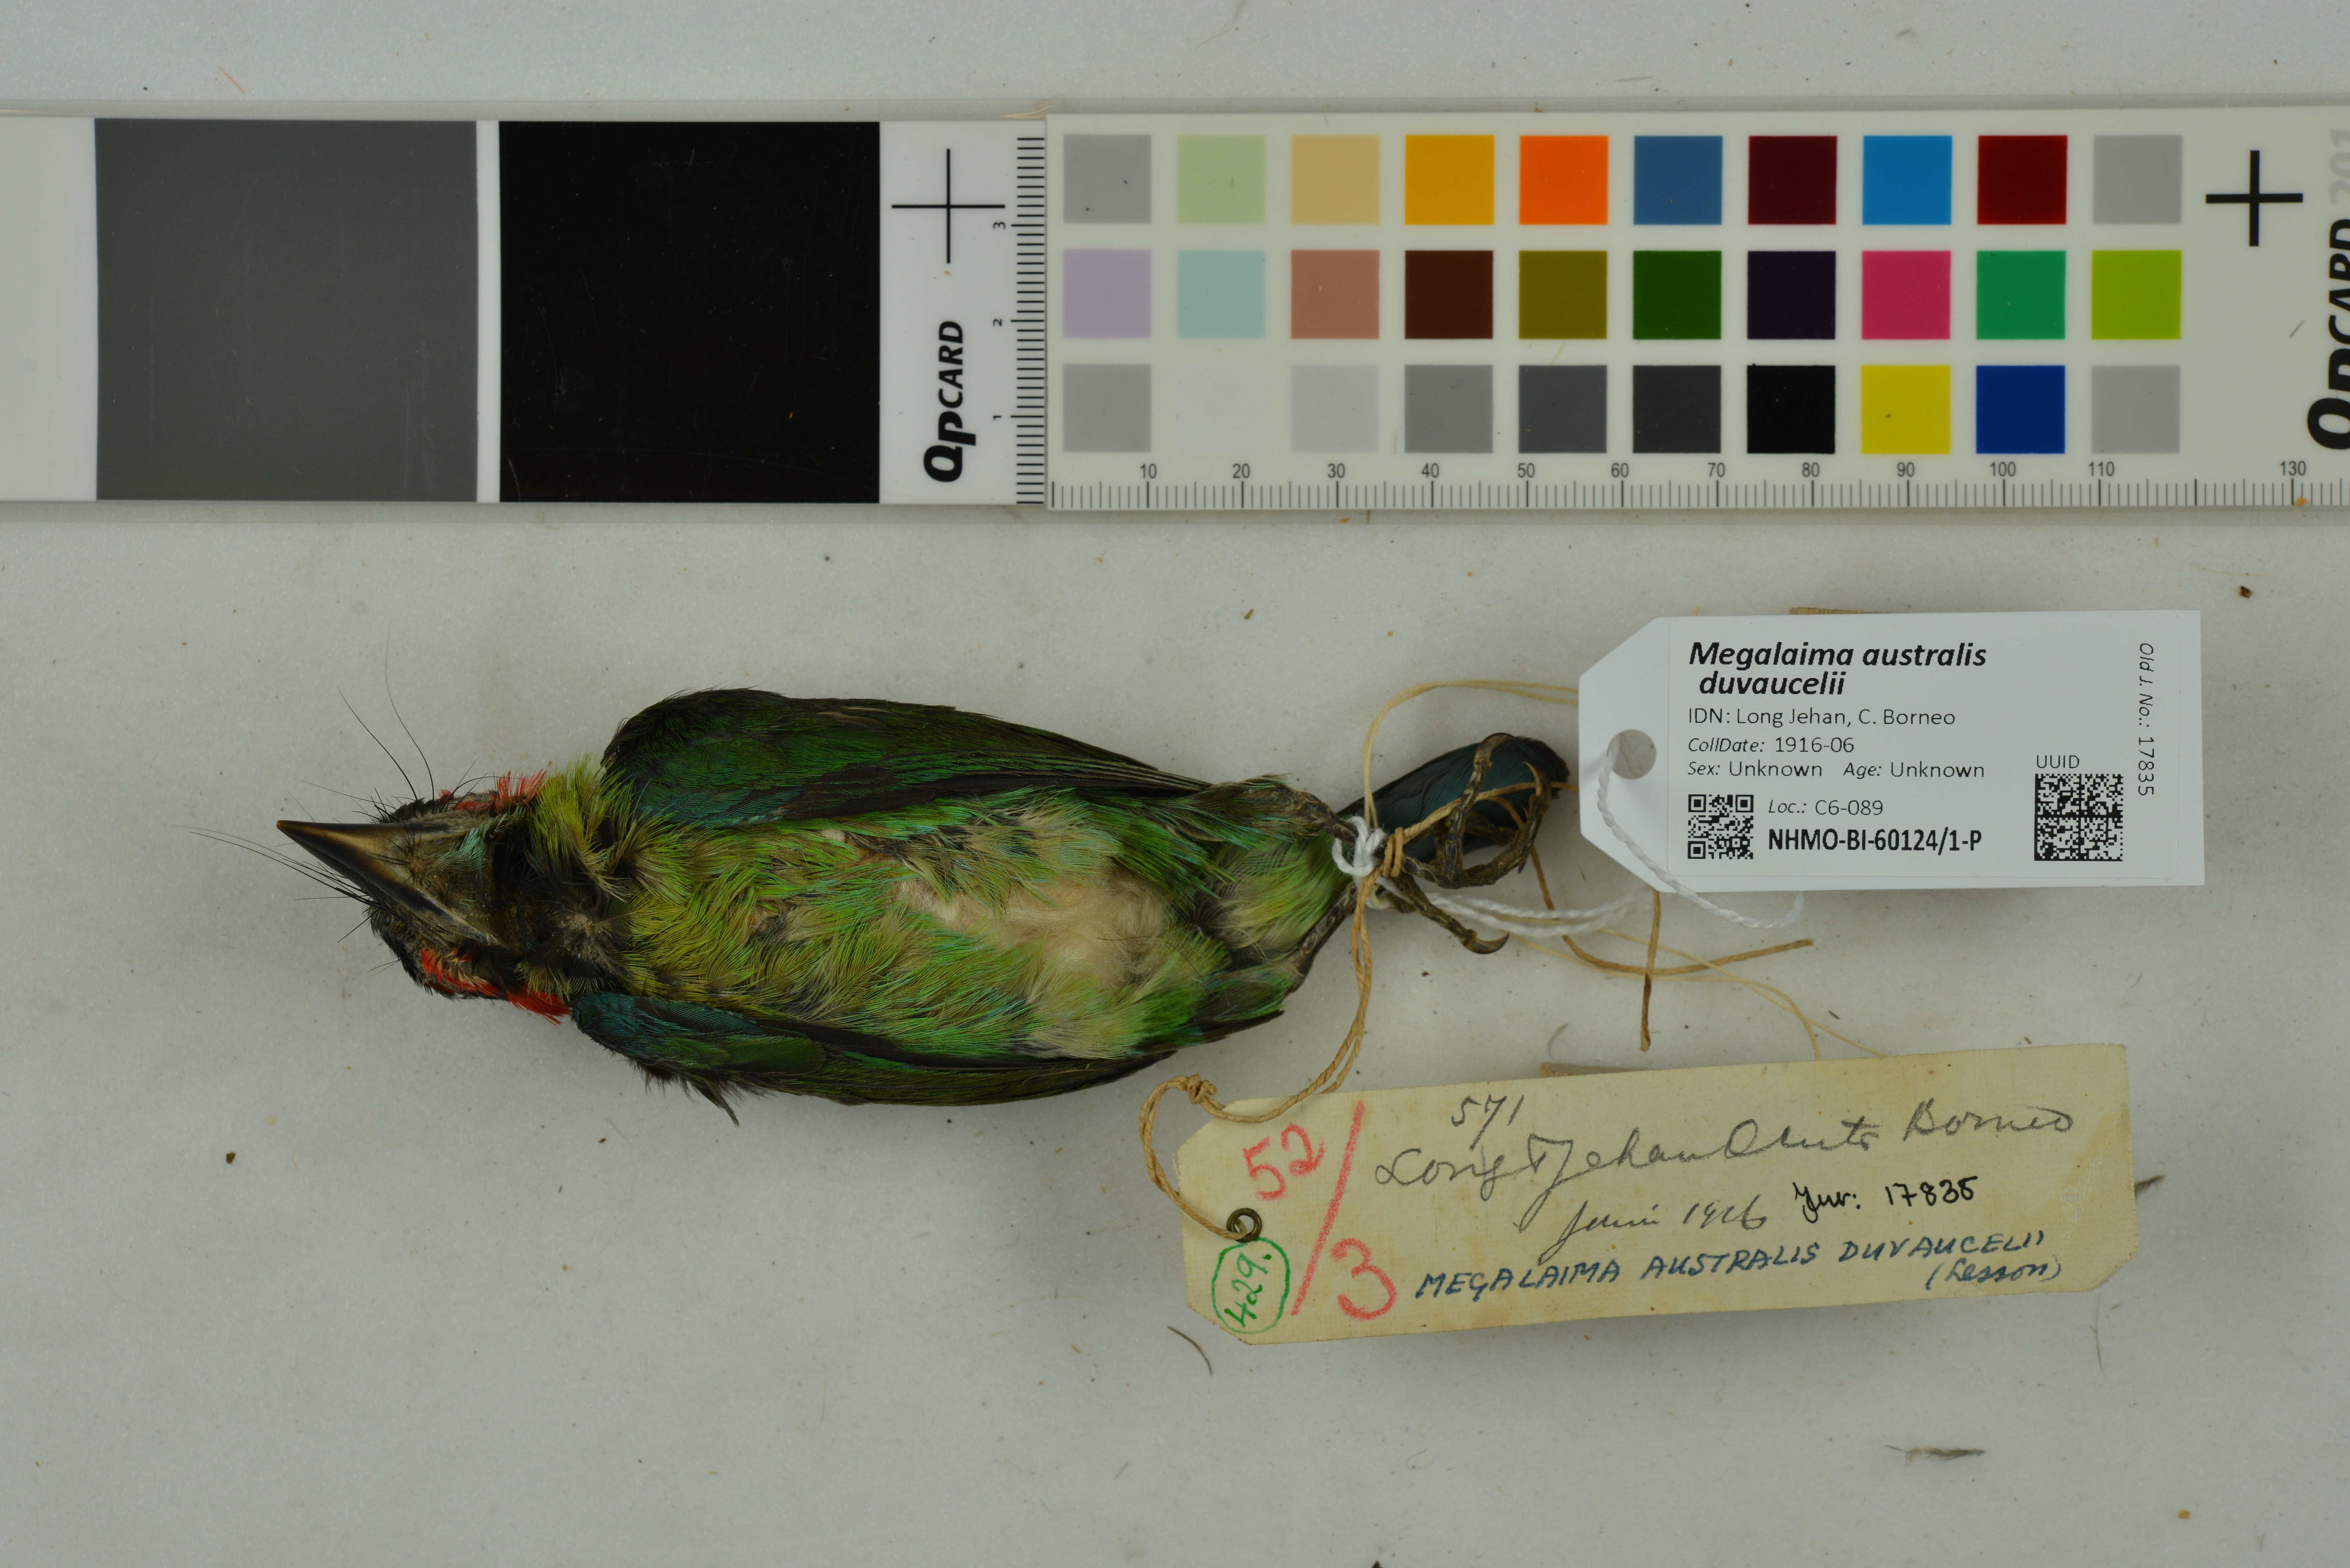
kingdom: Animalia
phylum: Chordata
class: Aves
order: Piciformes
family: Megalaimidae
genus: Psilopogon
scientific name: Psilopogon duvaucelii
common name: Blue-eared barbet
